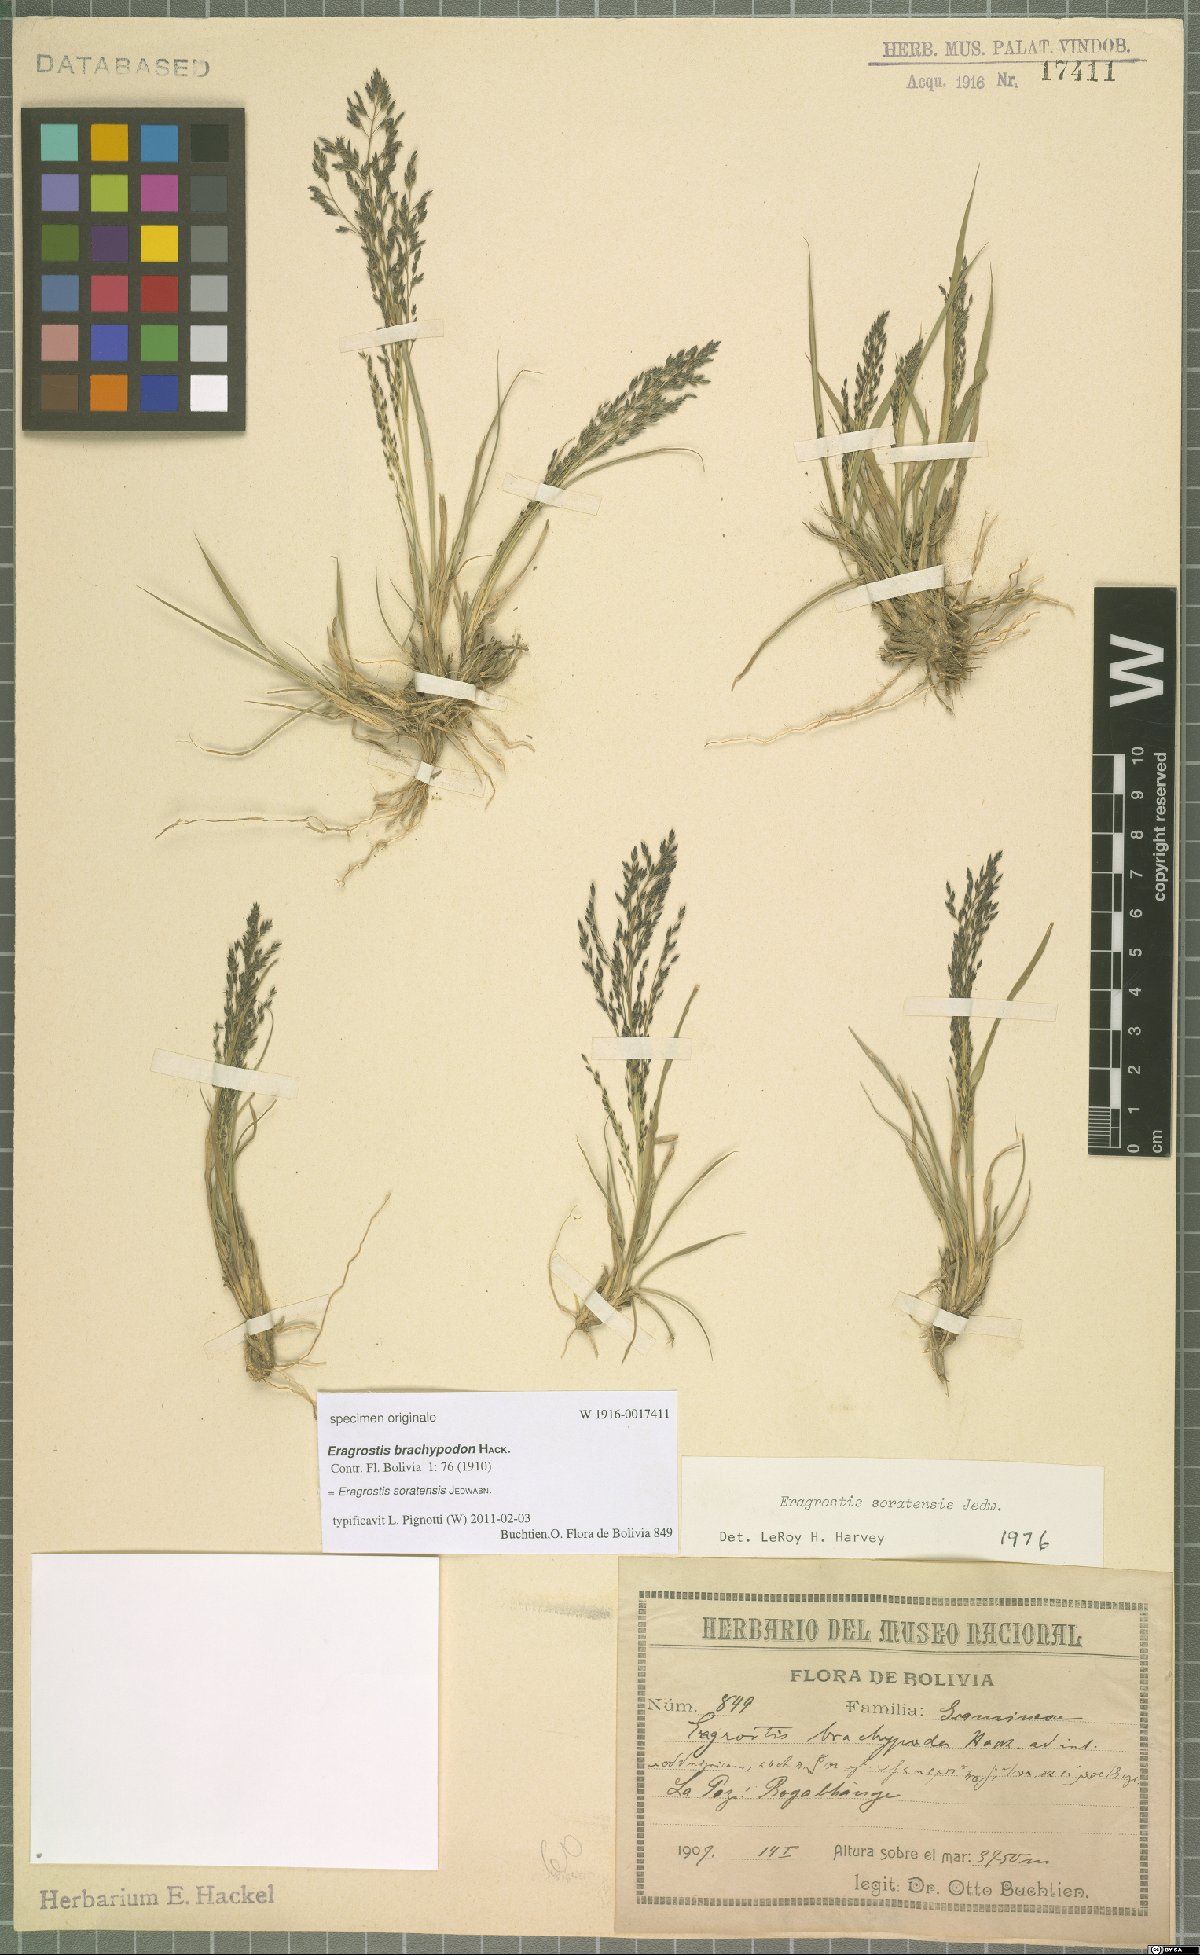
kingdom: Plantae
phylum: Tracheophyta
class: Liliopsida
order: Poales
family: Poaceae
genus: Eragrostis
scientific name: Eragrostis soratensis
